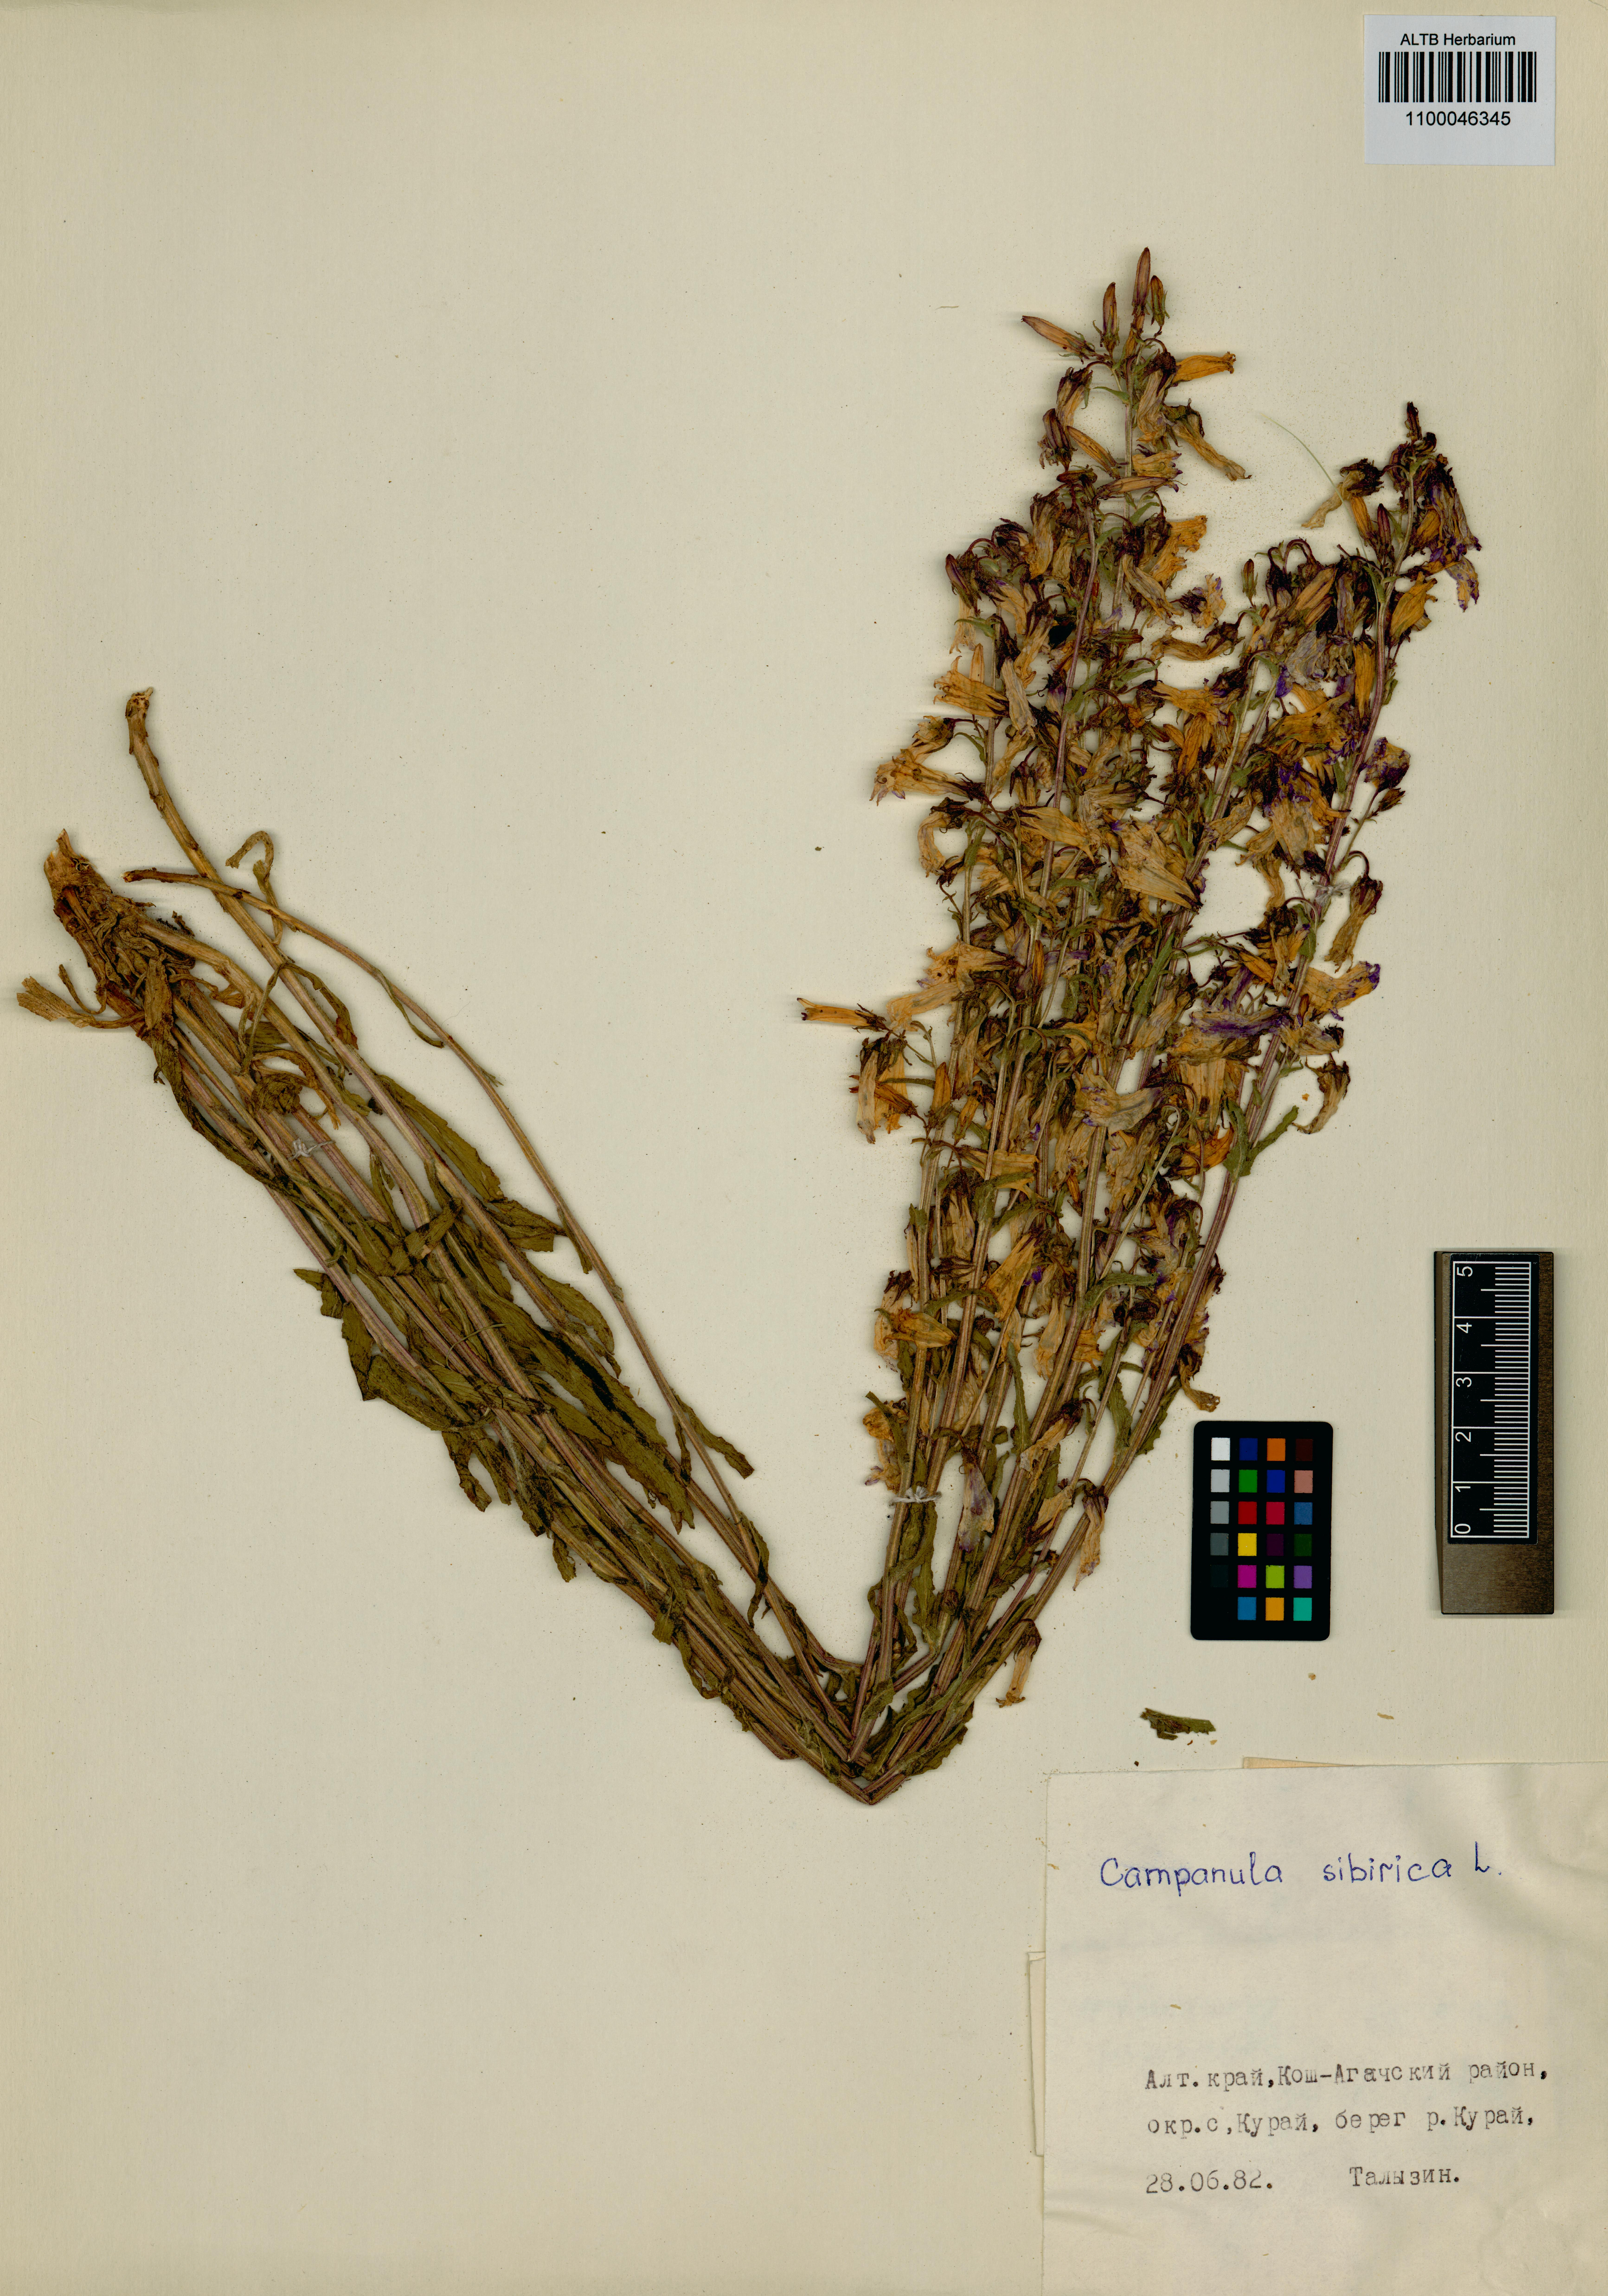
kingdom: Plantae
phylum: Tracheophyta
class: Magnoliopsida
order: Asterales
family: Campanulaceae
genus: Campanula
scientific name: Campanula sibirica
